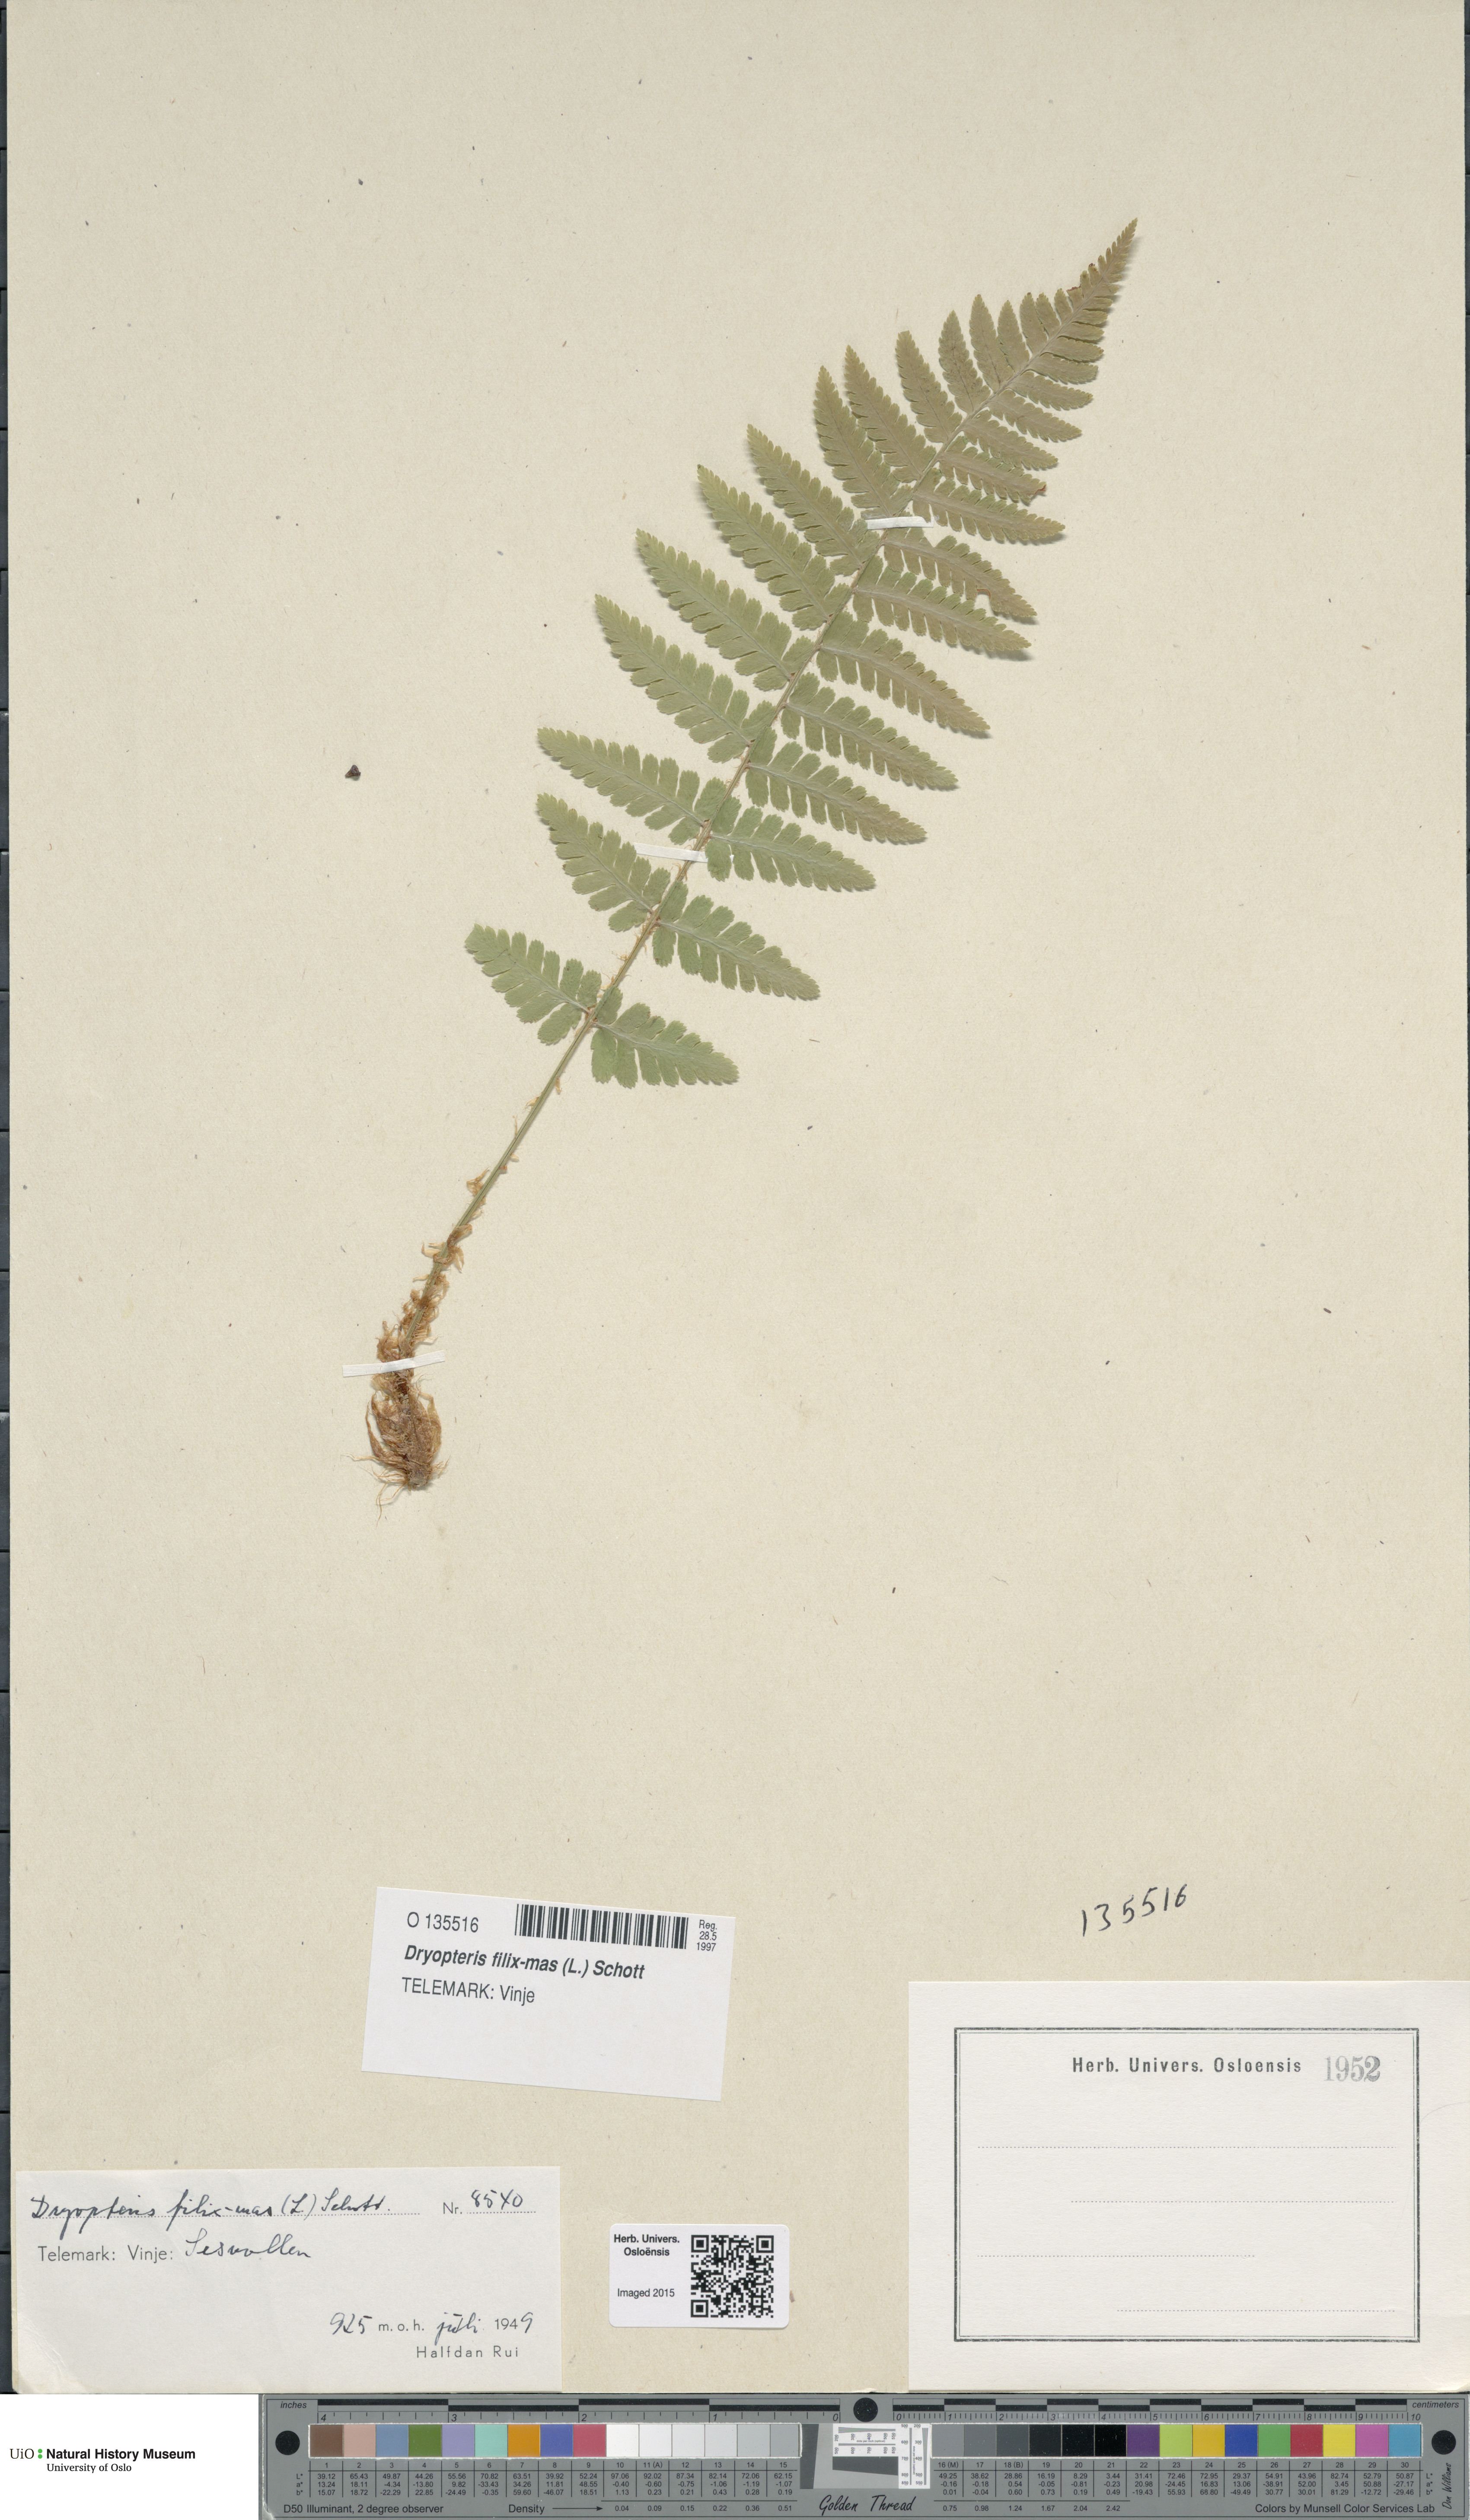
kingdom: Plantae
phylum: Tracheophyta
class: Polypodiopsida
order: Polypodiales
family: Dryopteridaceae
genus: Dryopteris
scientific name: Dryopteris filix-mas
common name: Male fern
